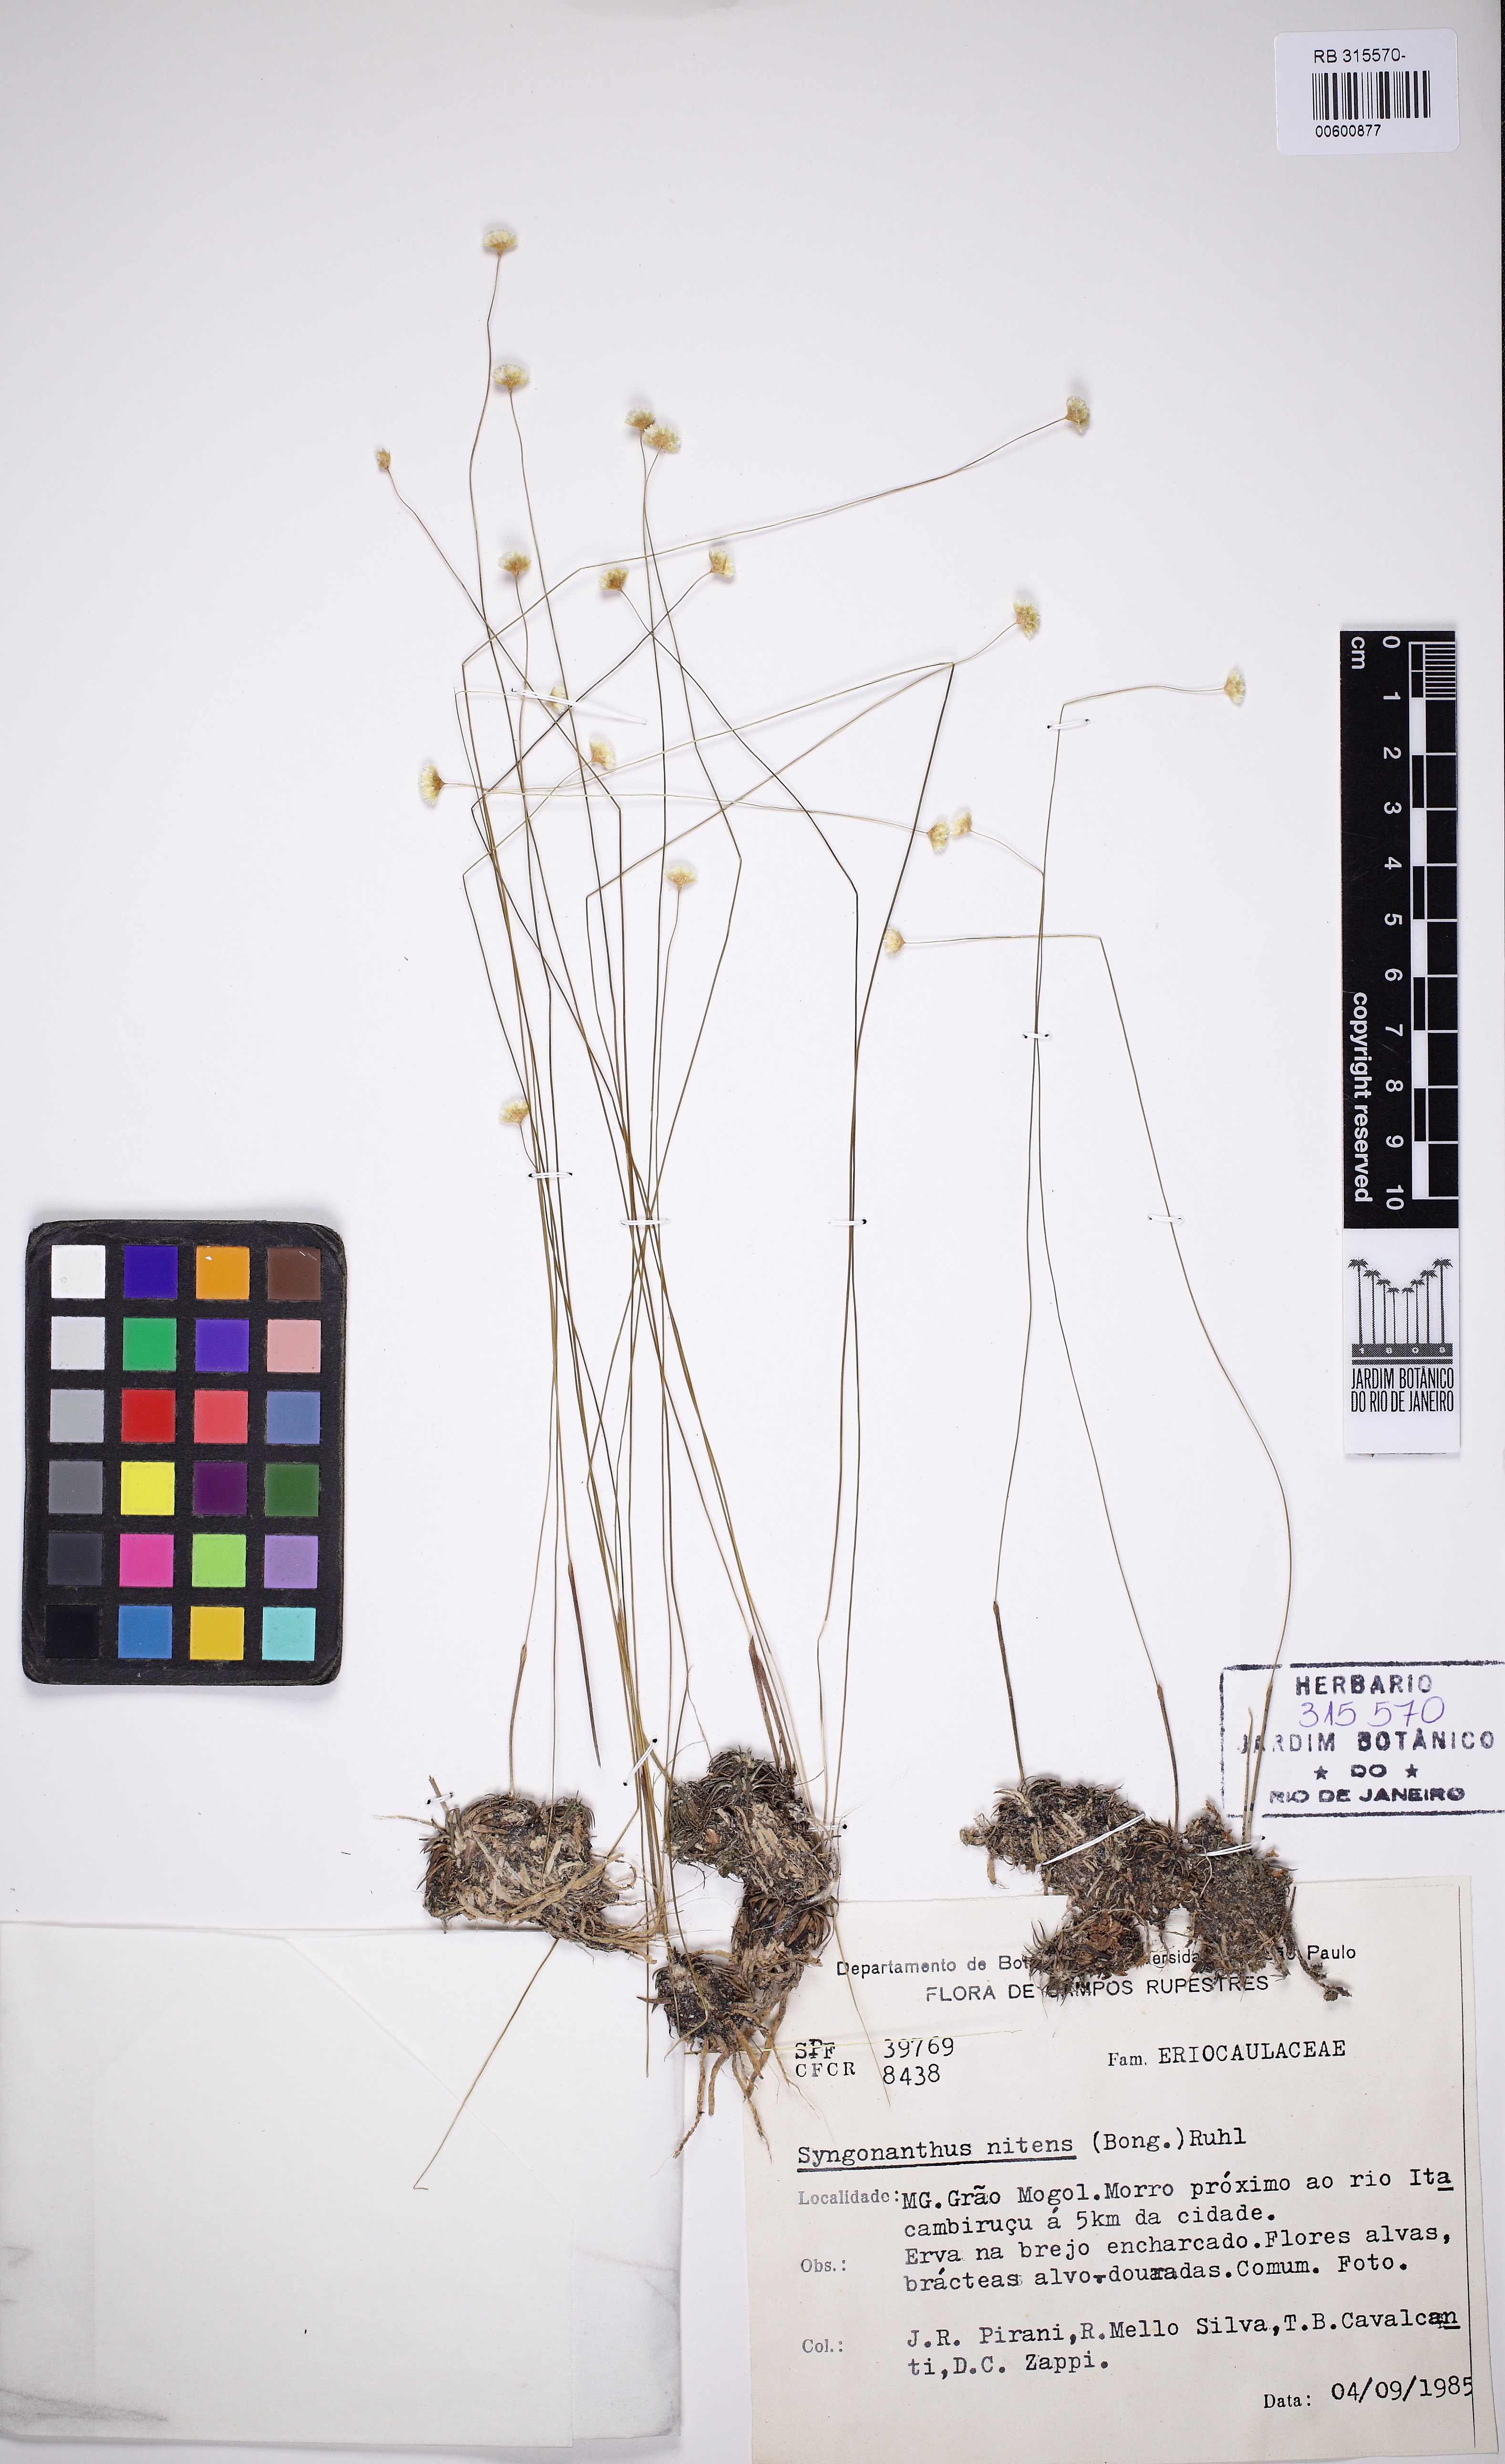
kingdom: Plantae
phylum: Tracheophyta
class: Liliopsida
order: Poales
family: Eriocaulaceae
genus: Syngonanthus
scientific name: Syngonanthus nitens
